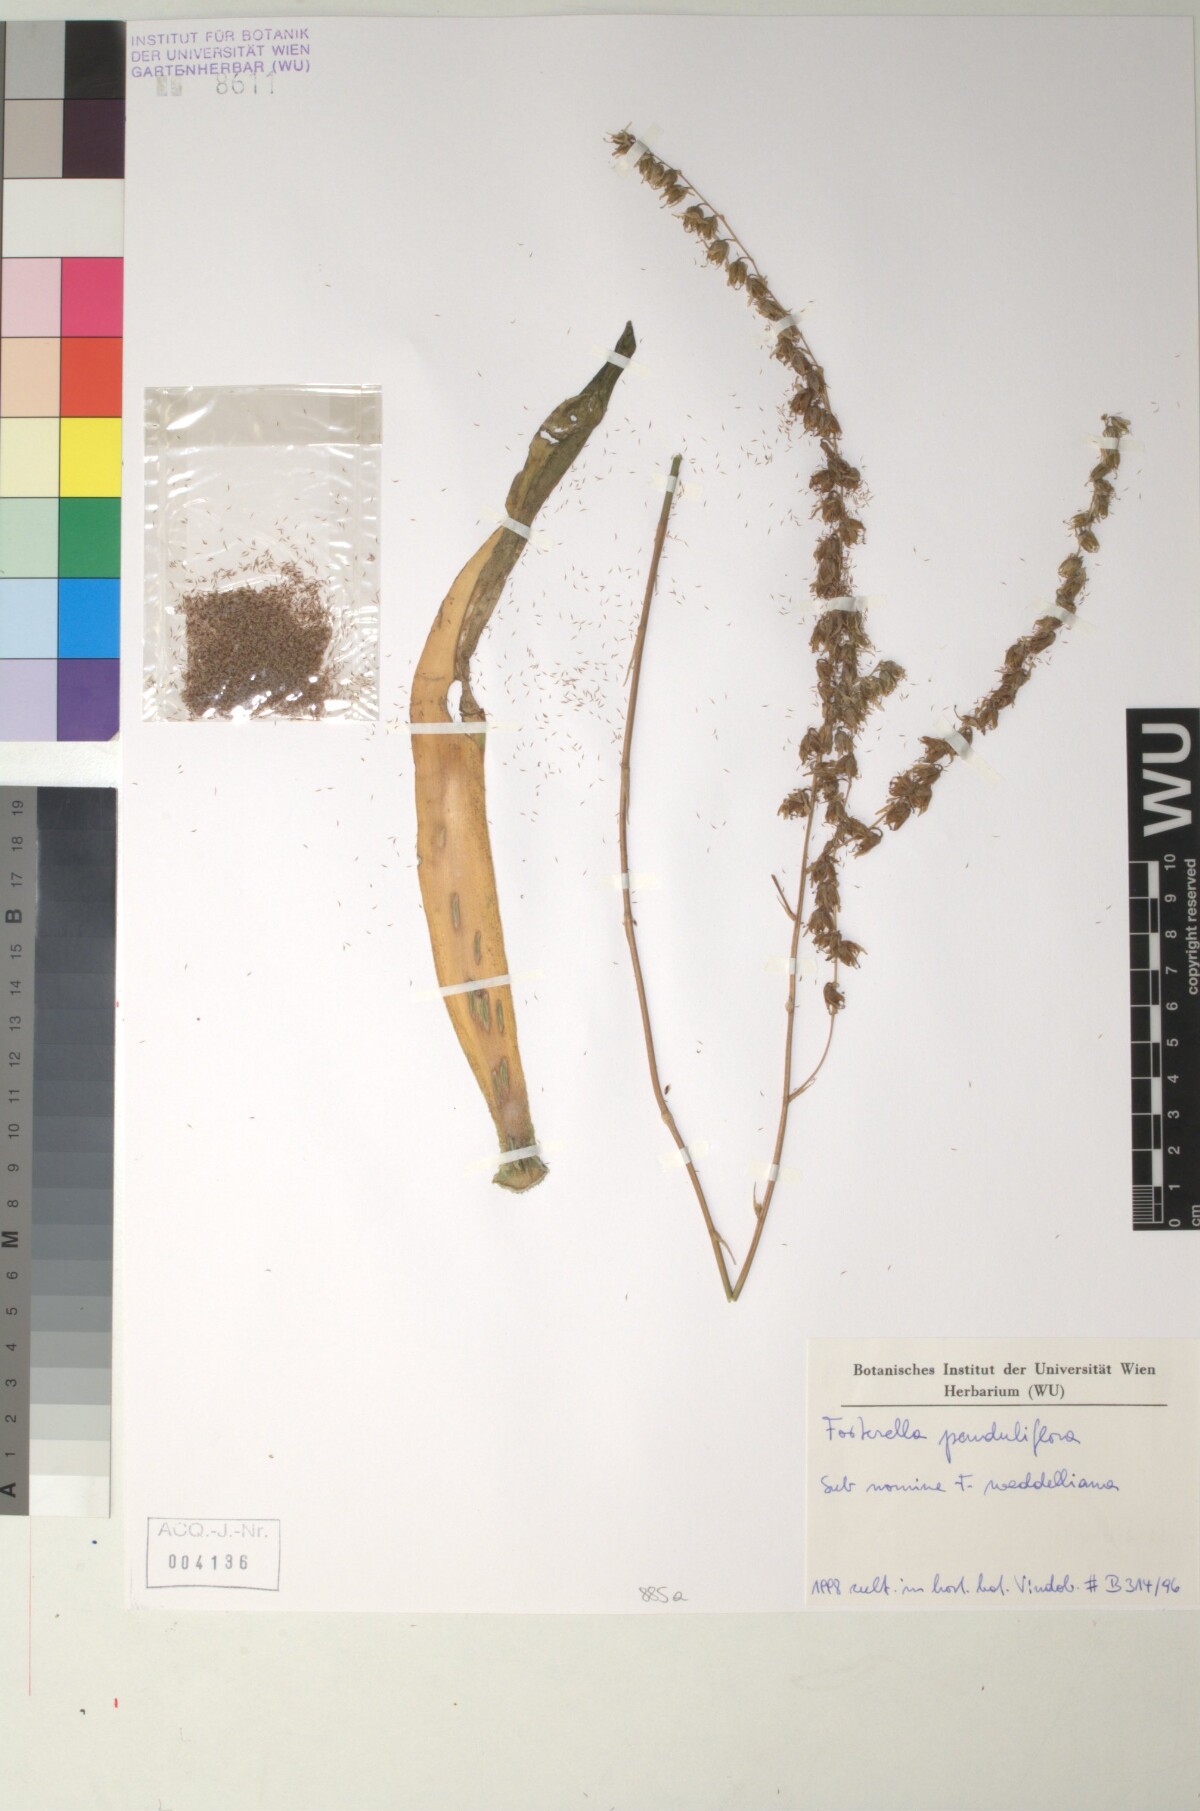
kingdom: Plantae
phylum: Tracheophyta
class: Liliopsida
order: Poales
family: Bromeliaceae
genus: Fosterella
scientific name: Fosterella penduliflora
